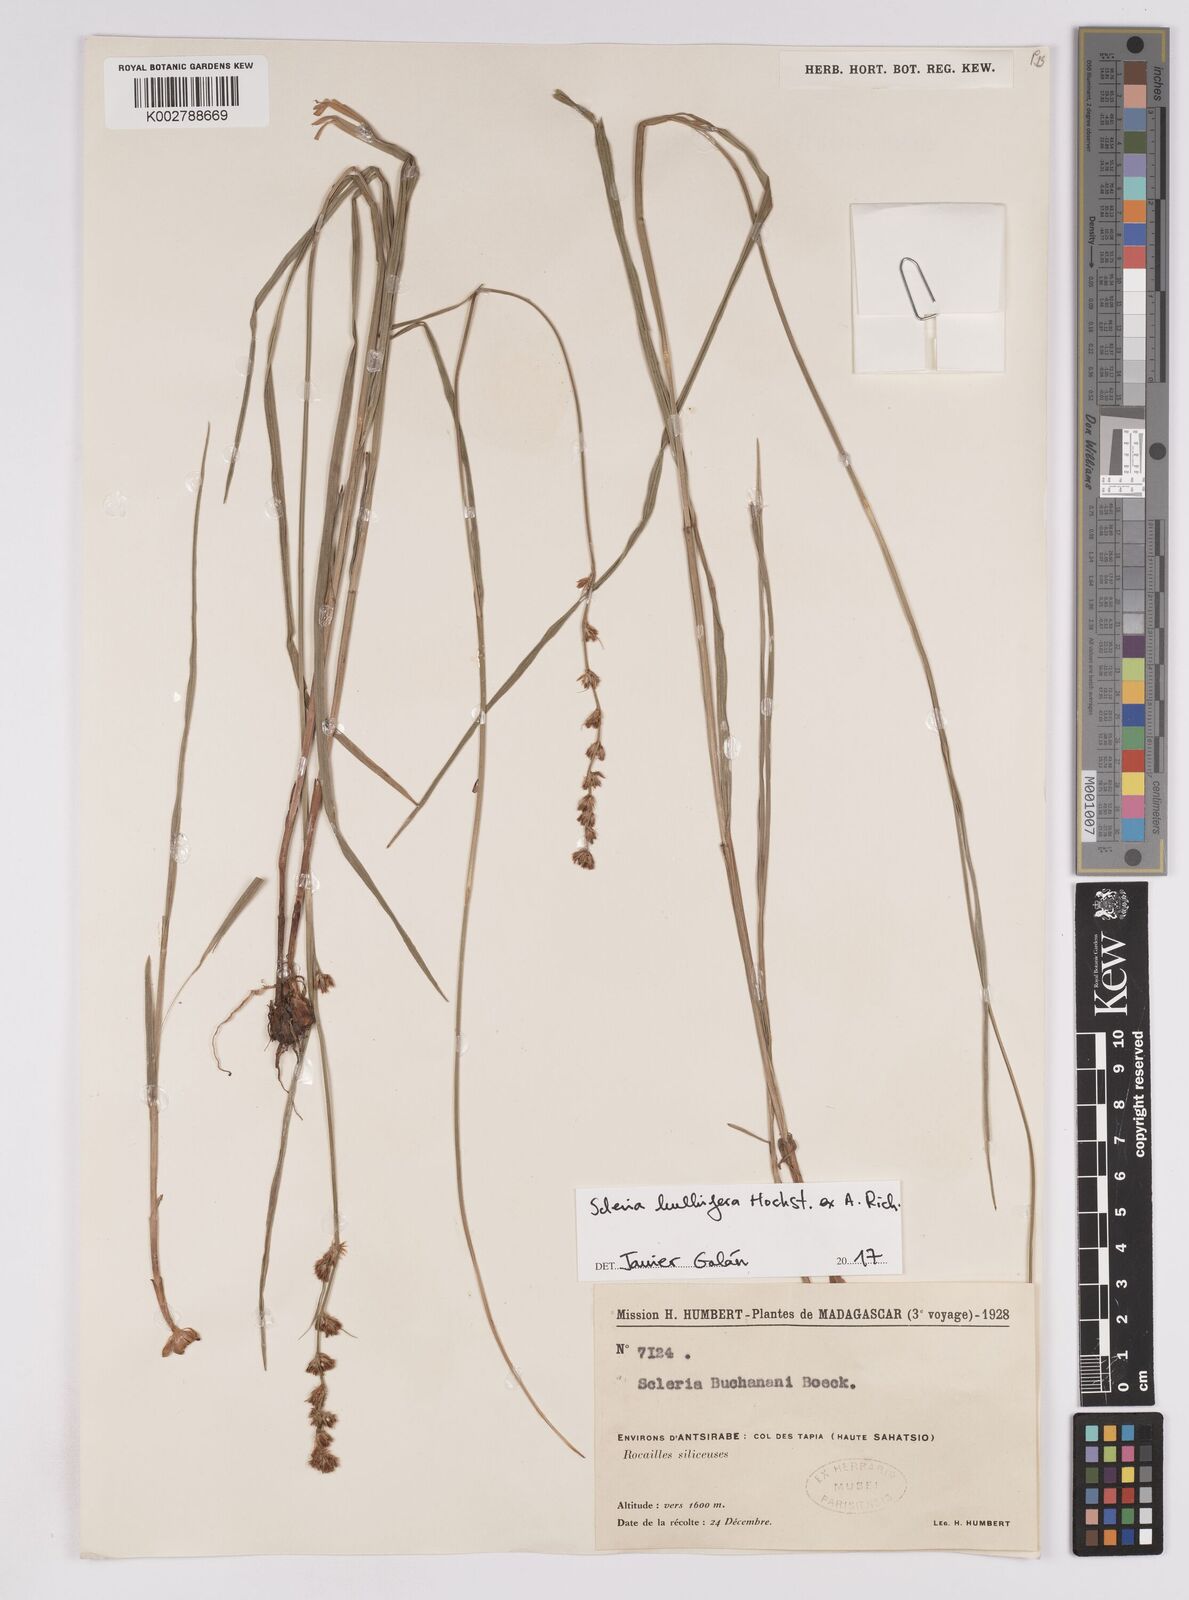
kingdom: Plantae
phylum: Tracheophyta
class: Liliopsida
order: Poales
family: Cyperaceae
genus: Scleria
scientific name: Scleria bulbifera
